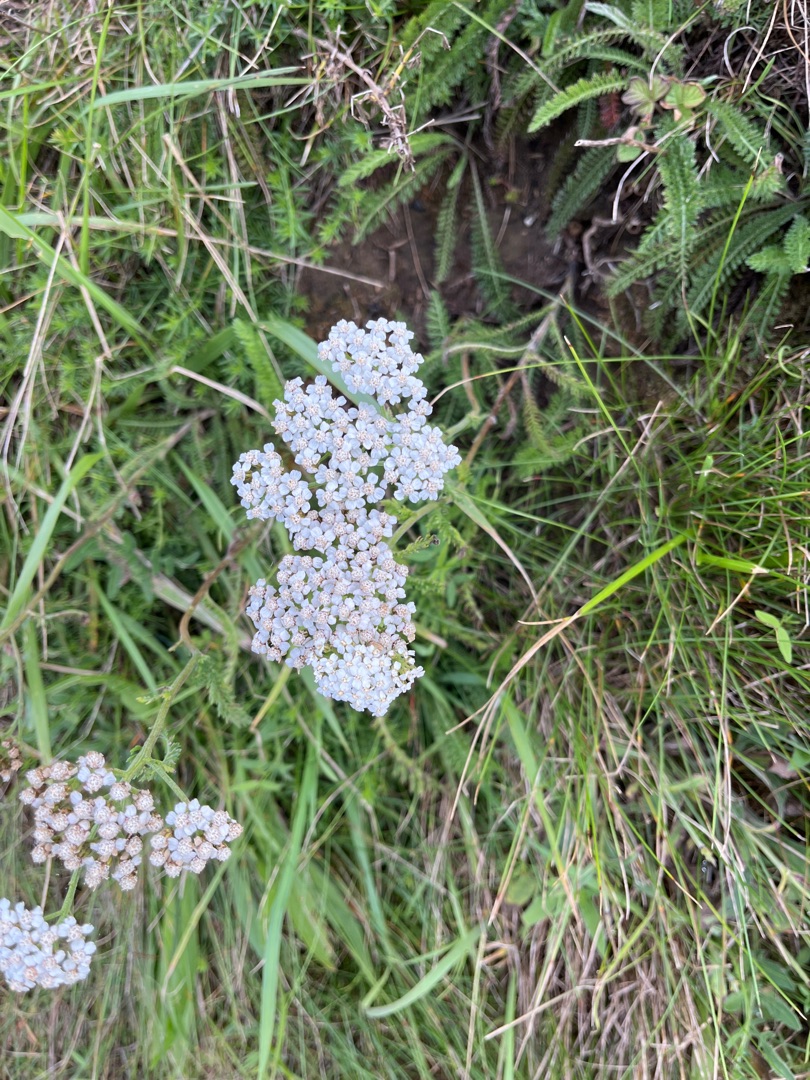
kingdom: Plantae
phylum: Tracheophyta
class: Magnoliopsida
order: Asterales
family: Asteraceae
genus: Achillea
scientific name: Achillea millefolium
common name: Almindelig røllike
